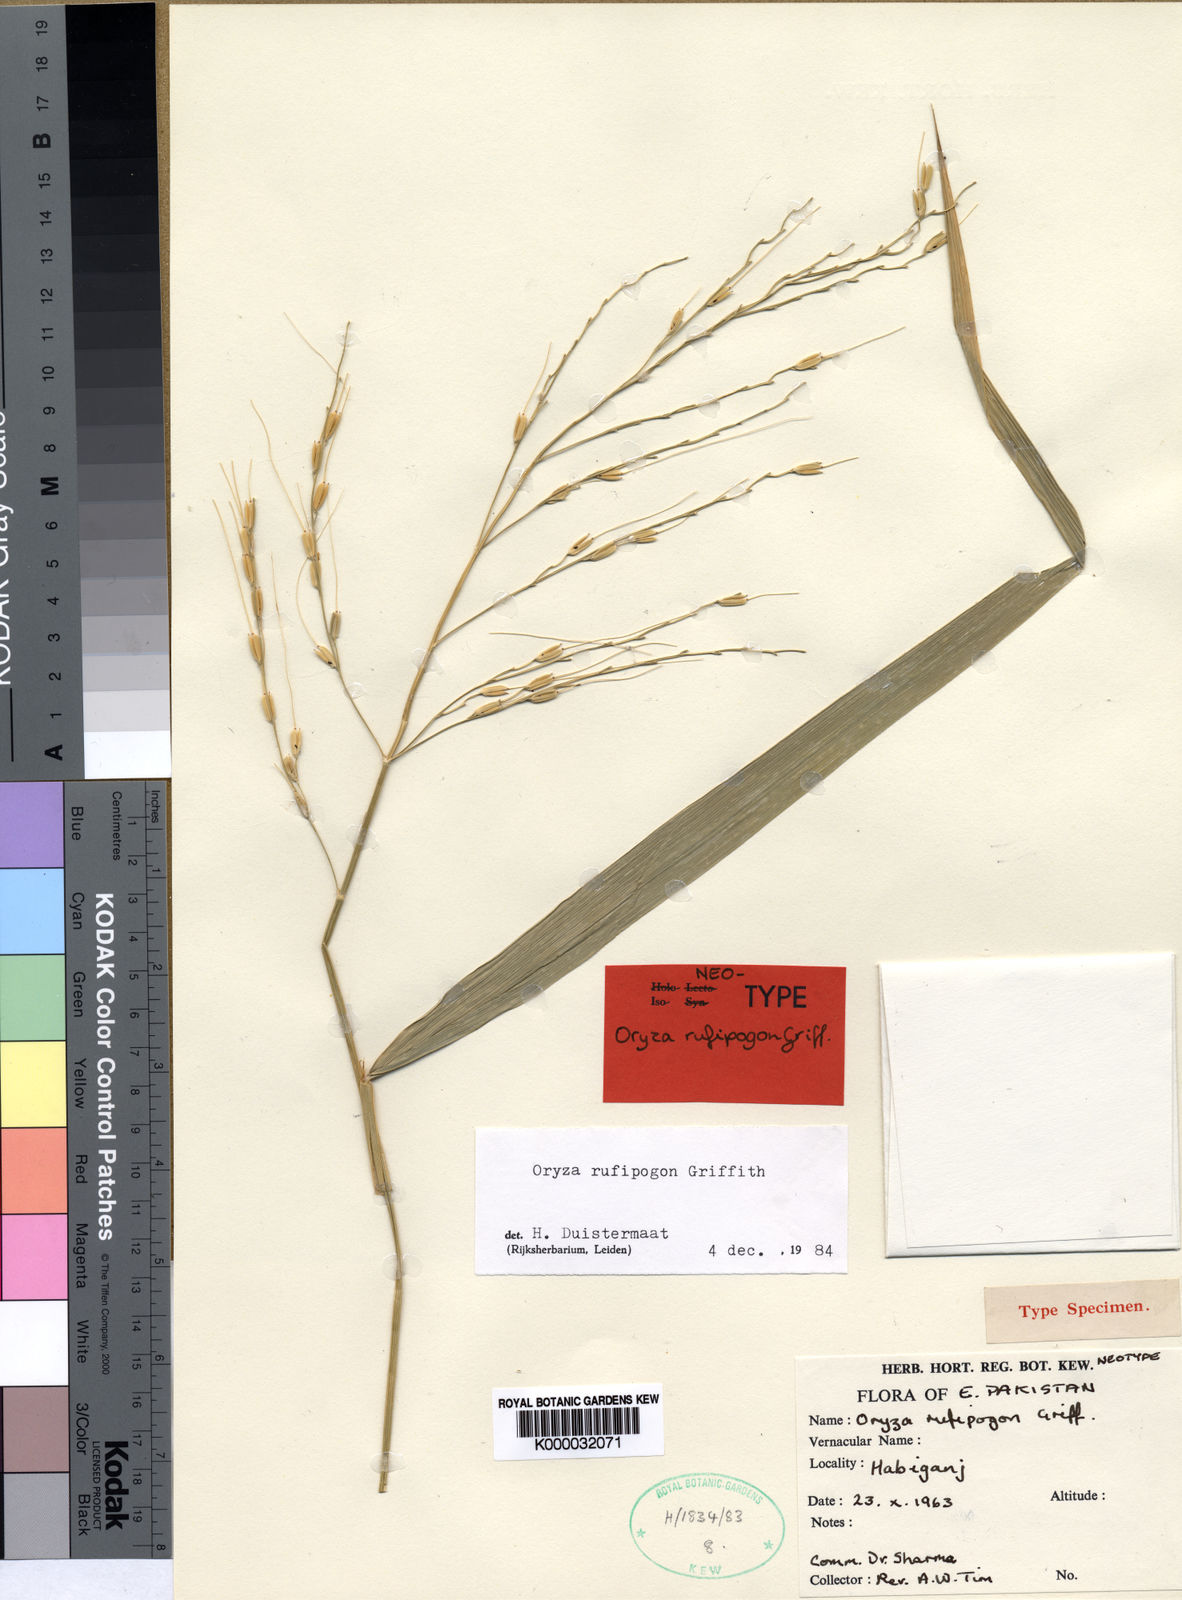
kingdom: Plantae
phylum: Tracheophyta
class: Liliopsida
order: Poales
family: Poaceae
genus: Oryza
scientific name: Oryza rufipogon
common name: Red rice
